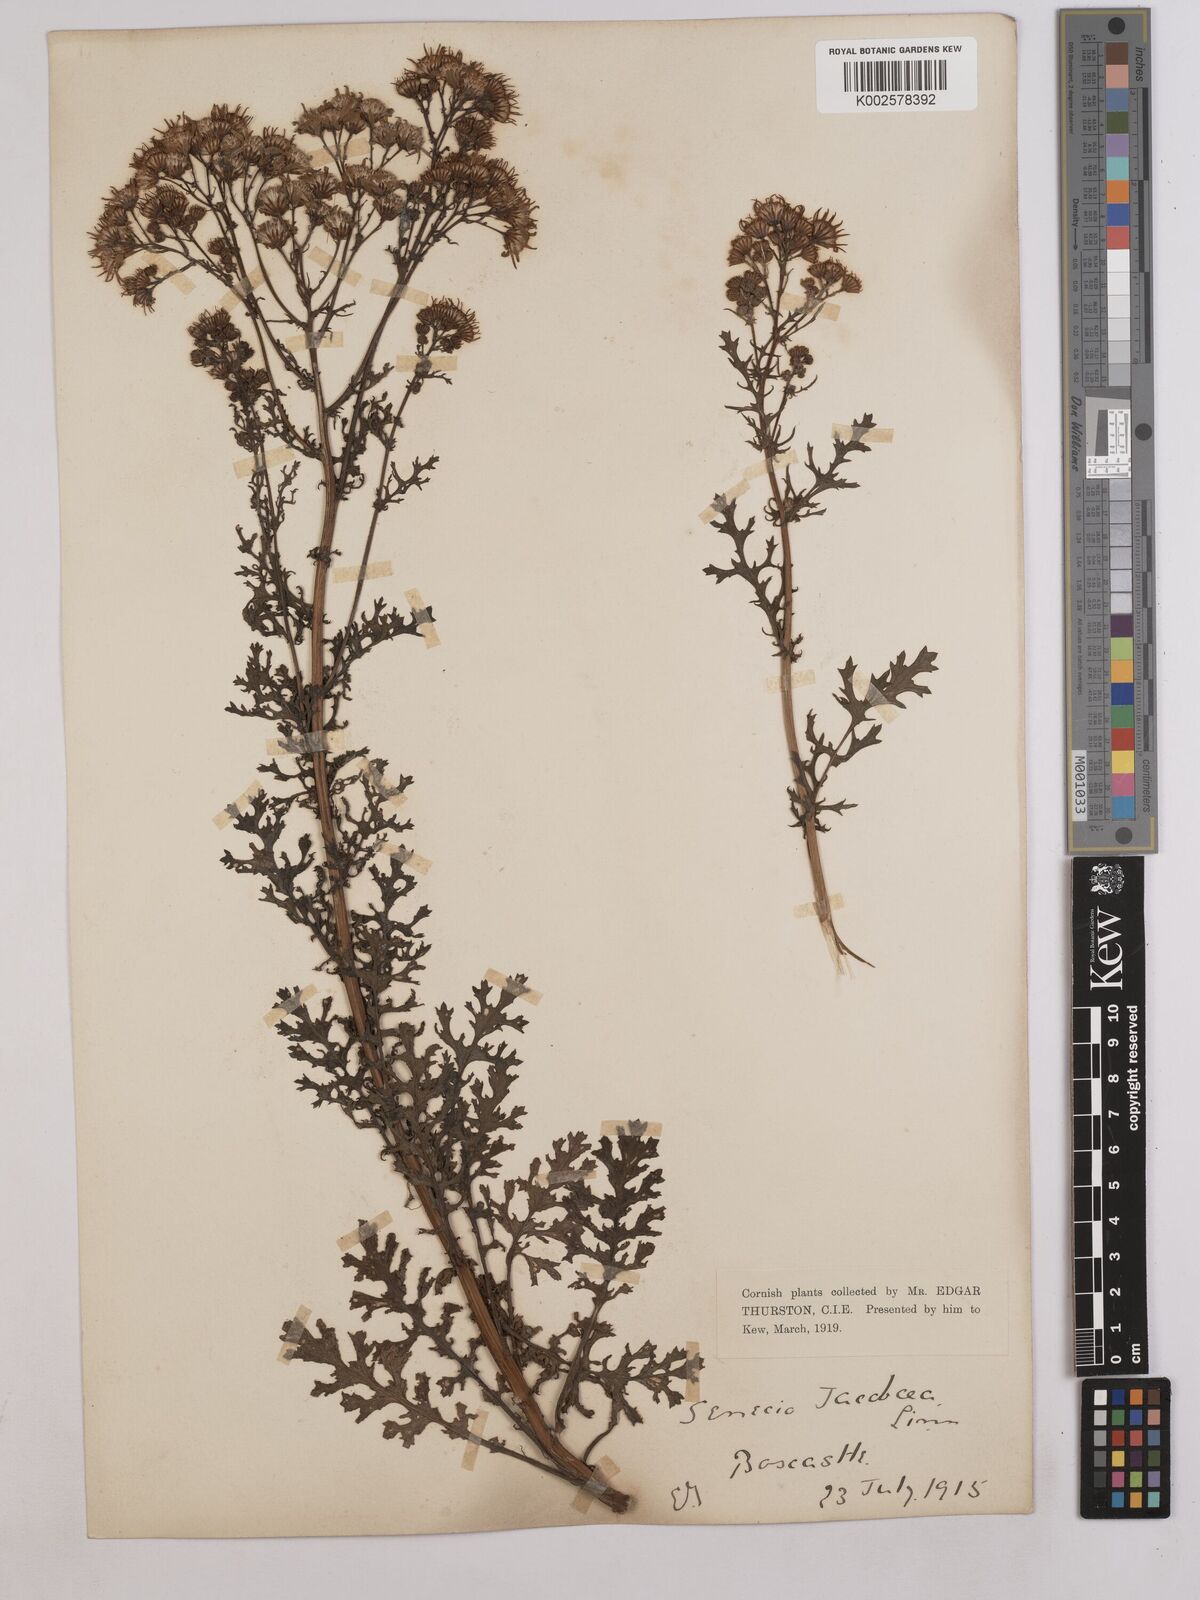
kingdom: Plantae
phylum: Tracheophyta
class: Magnoliopsida
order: Asterales
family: Asteraceae
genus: Jacobaea
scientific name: Jacobaea vulgaris
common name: Stinking willie
